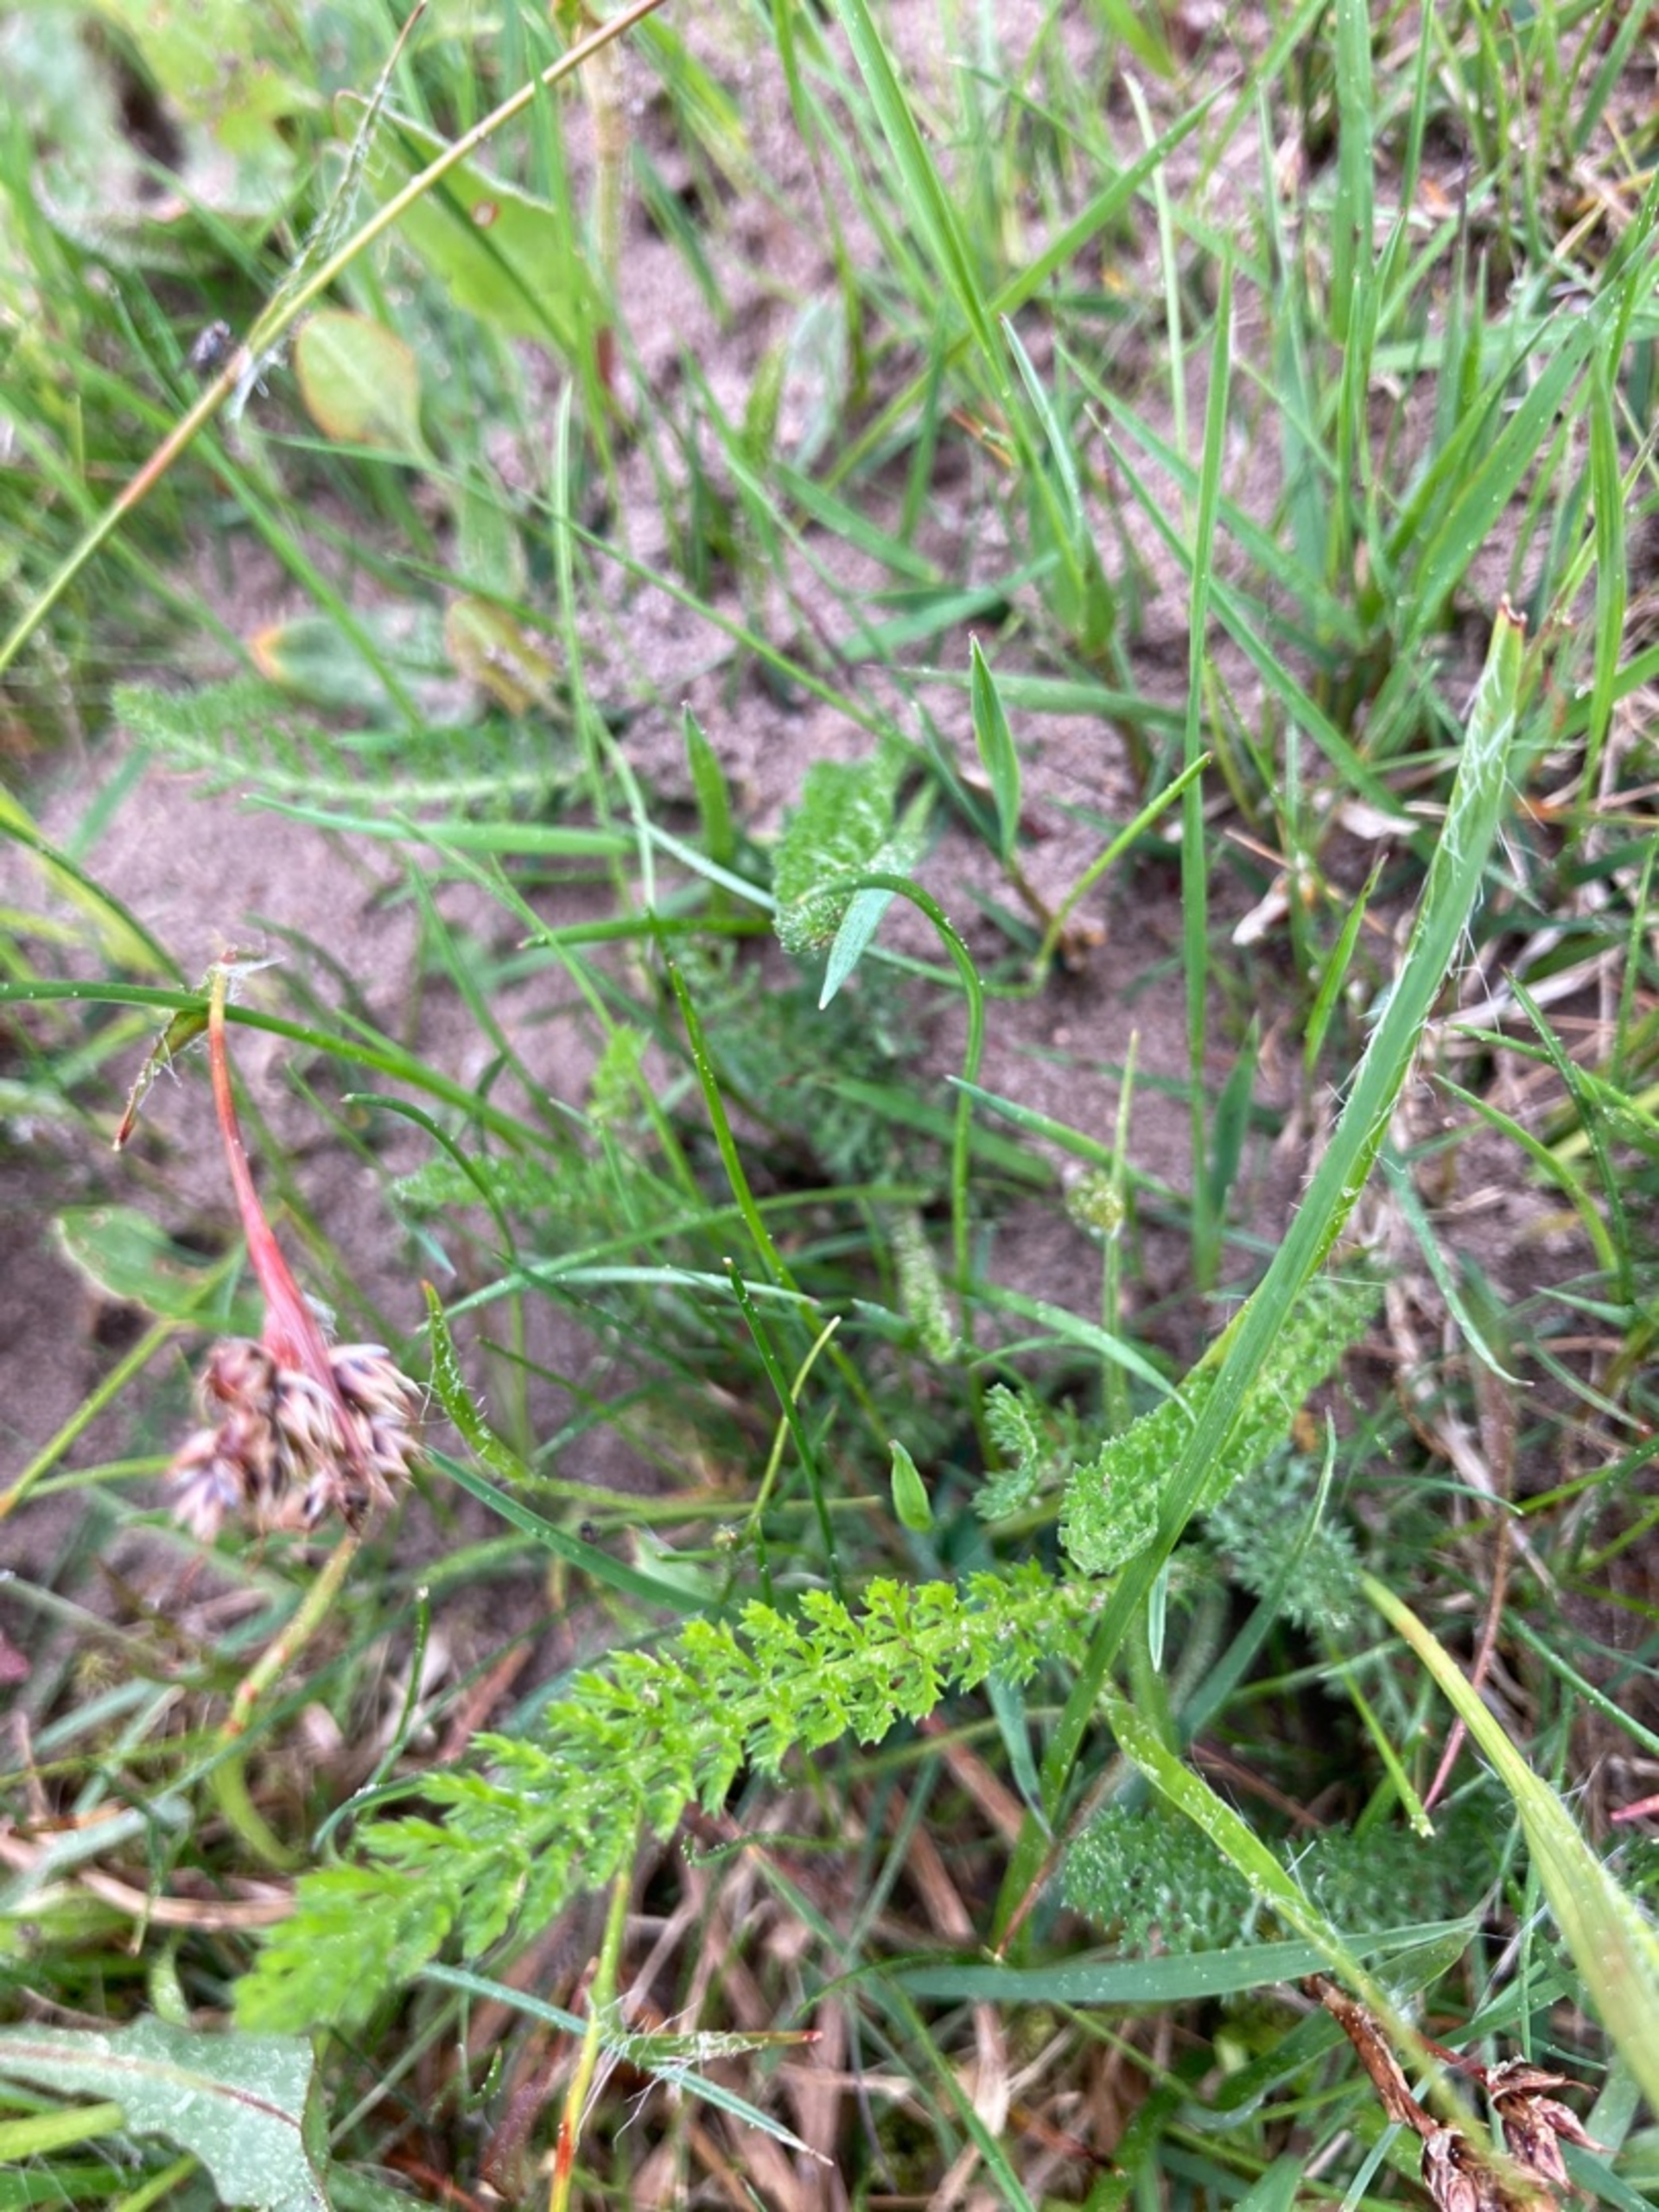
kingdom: Plantae
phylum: Tracheophyta
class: Magnoliopsida
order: Asterales
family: Asteraceae
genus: Achillea
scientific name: Achillea millefolium
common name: Almindelig røllike
